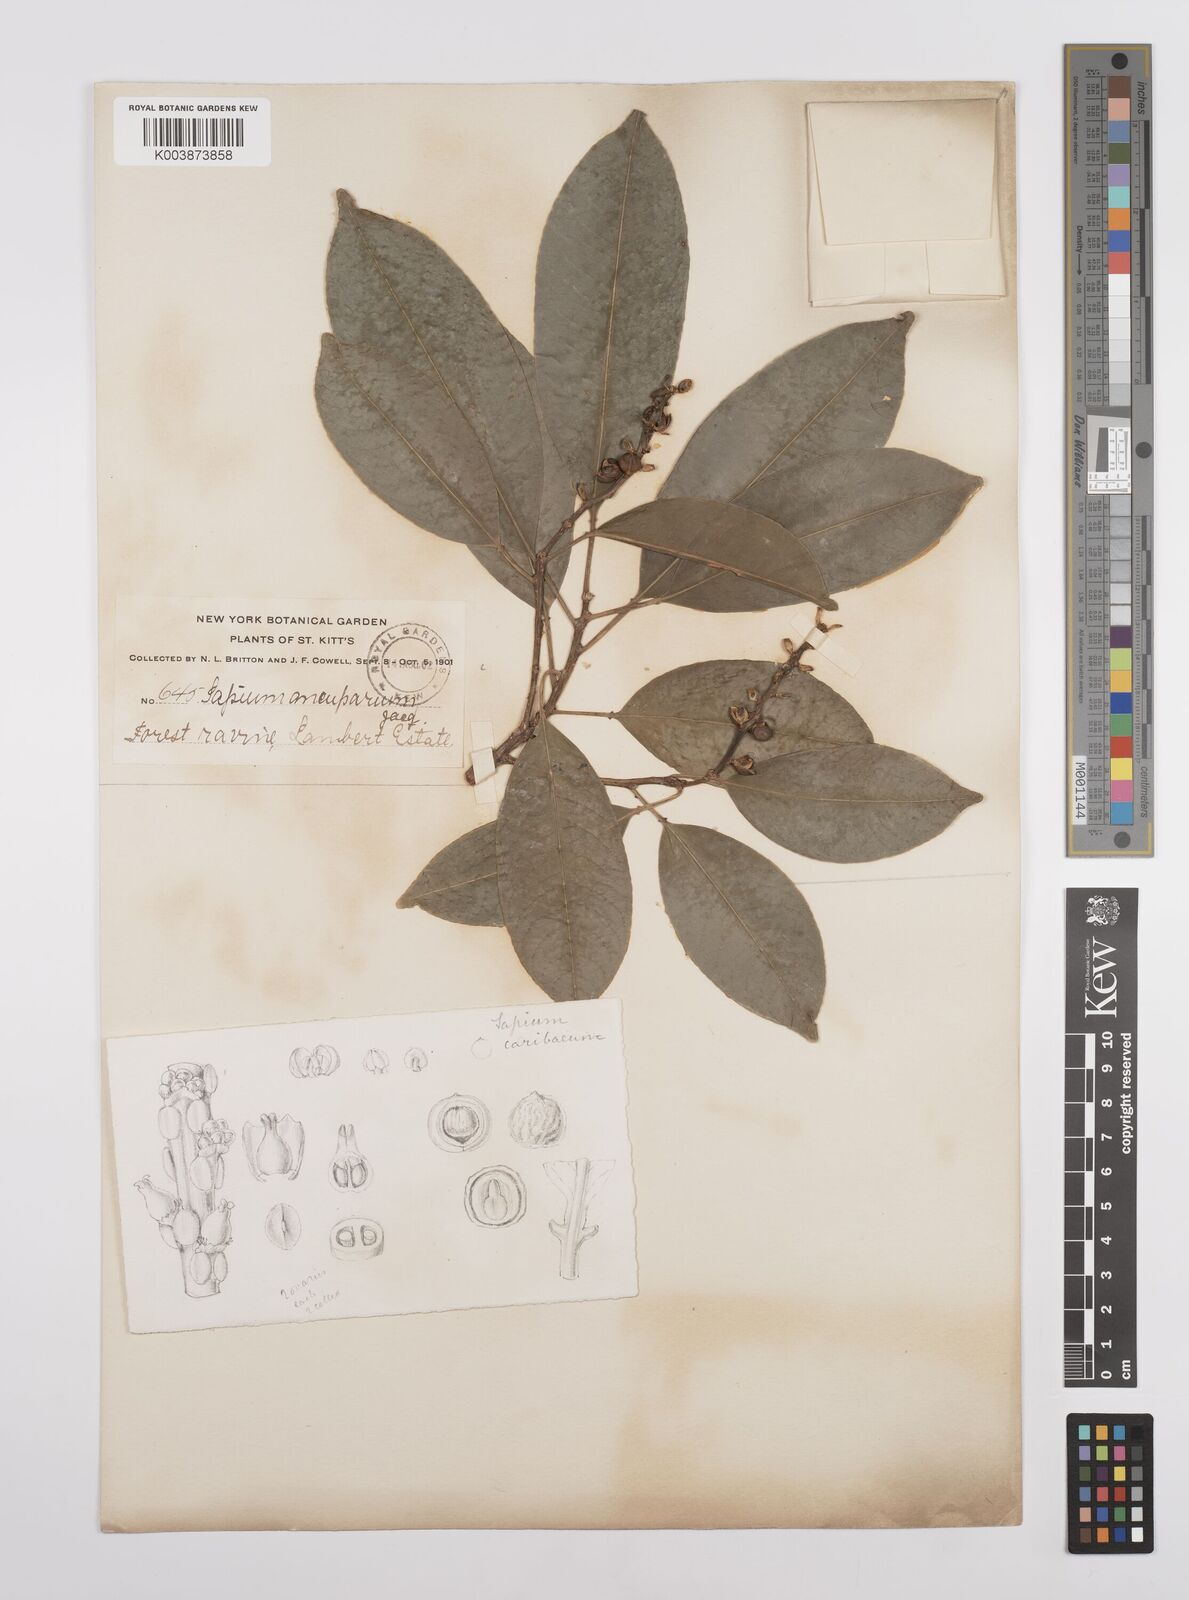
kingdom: Plantae
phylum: Tracheophyta
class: Magnoliopsida
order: Malpighiales
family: Euphorbiaceae
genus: Sapium
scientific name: Sapium glandulosum
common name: Milktree
